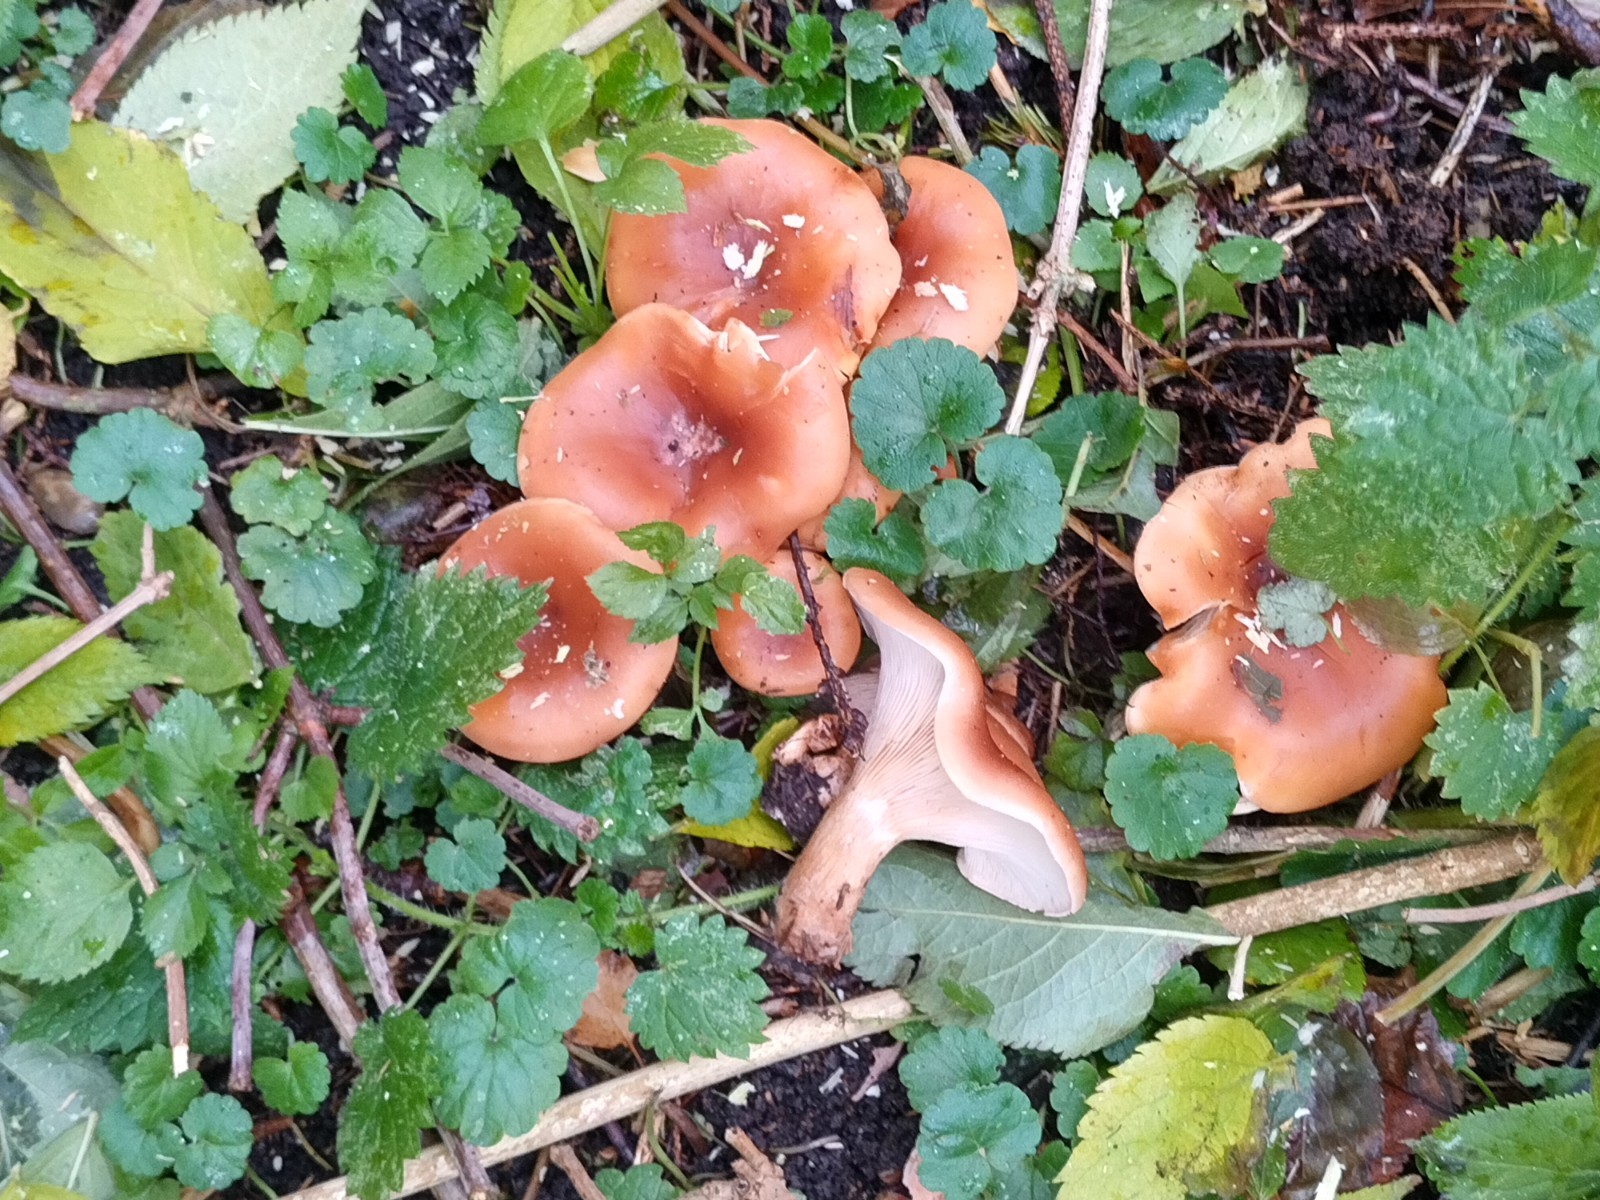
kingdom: Fungi
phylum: Basidiomycota
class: Agaricomycetes
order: Agaricales
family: Tricholomataceae
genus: Paralepista
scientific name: Paralepista flaccida
